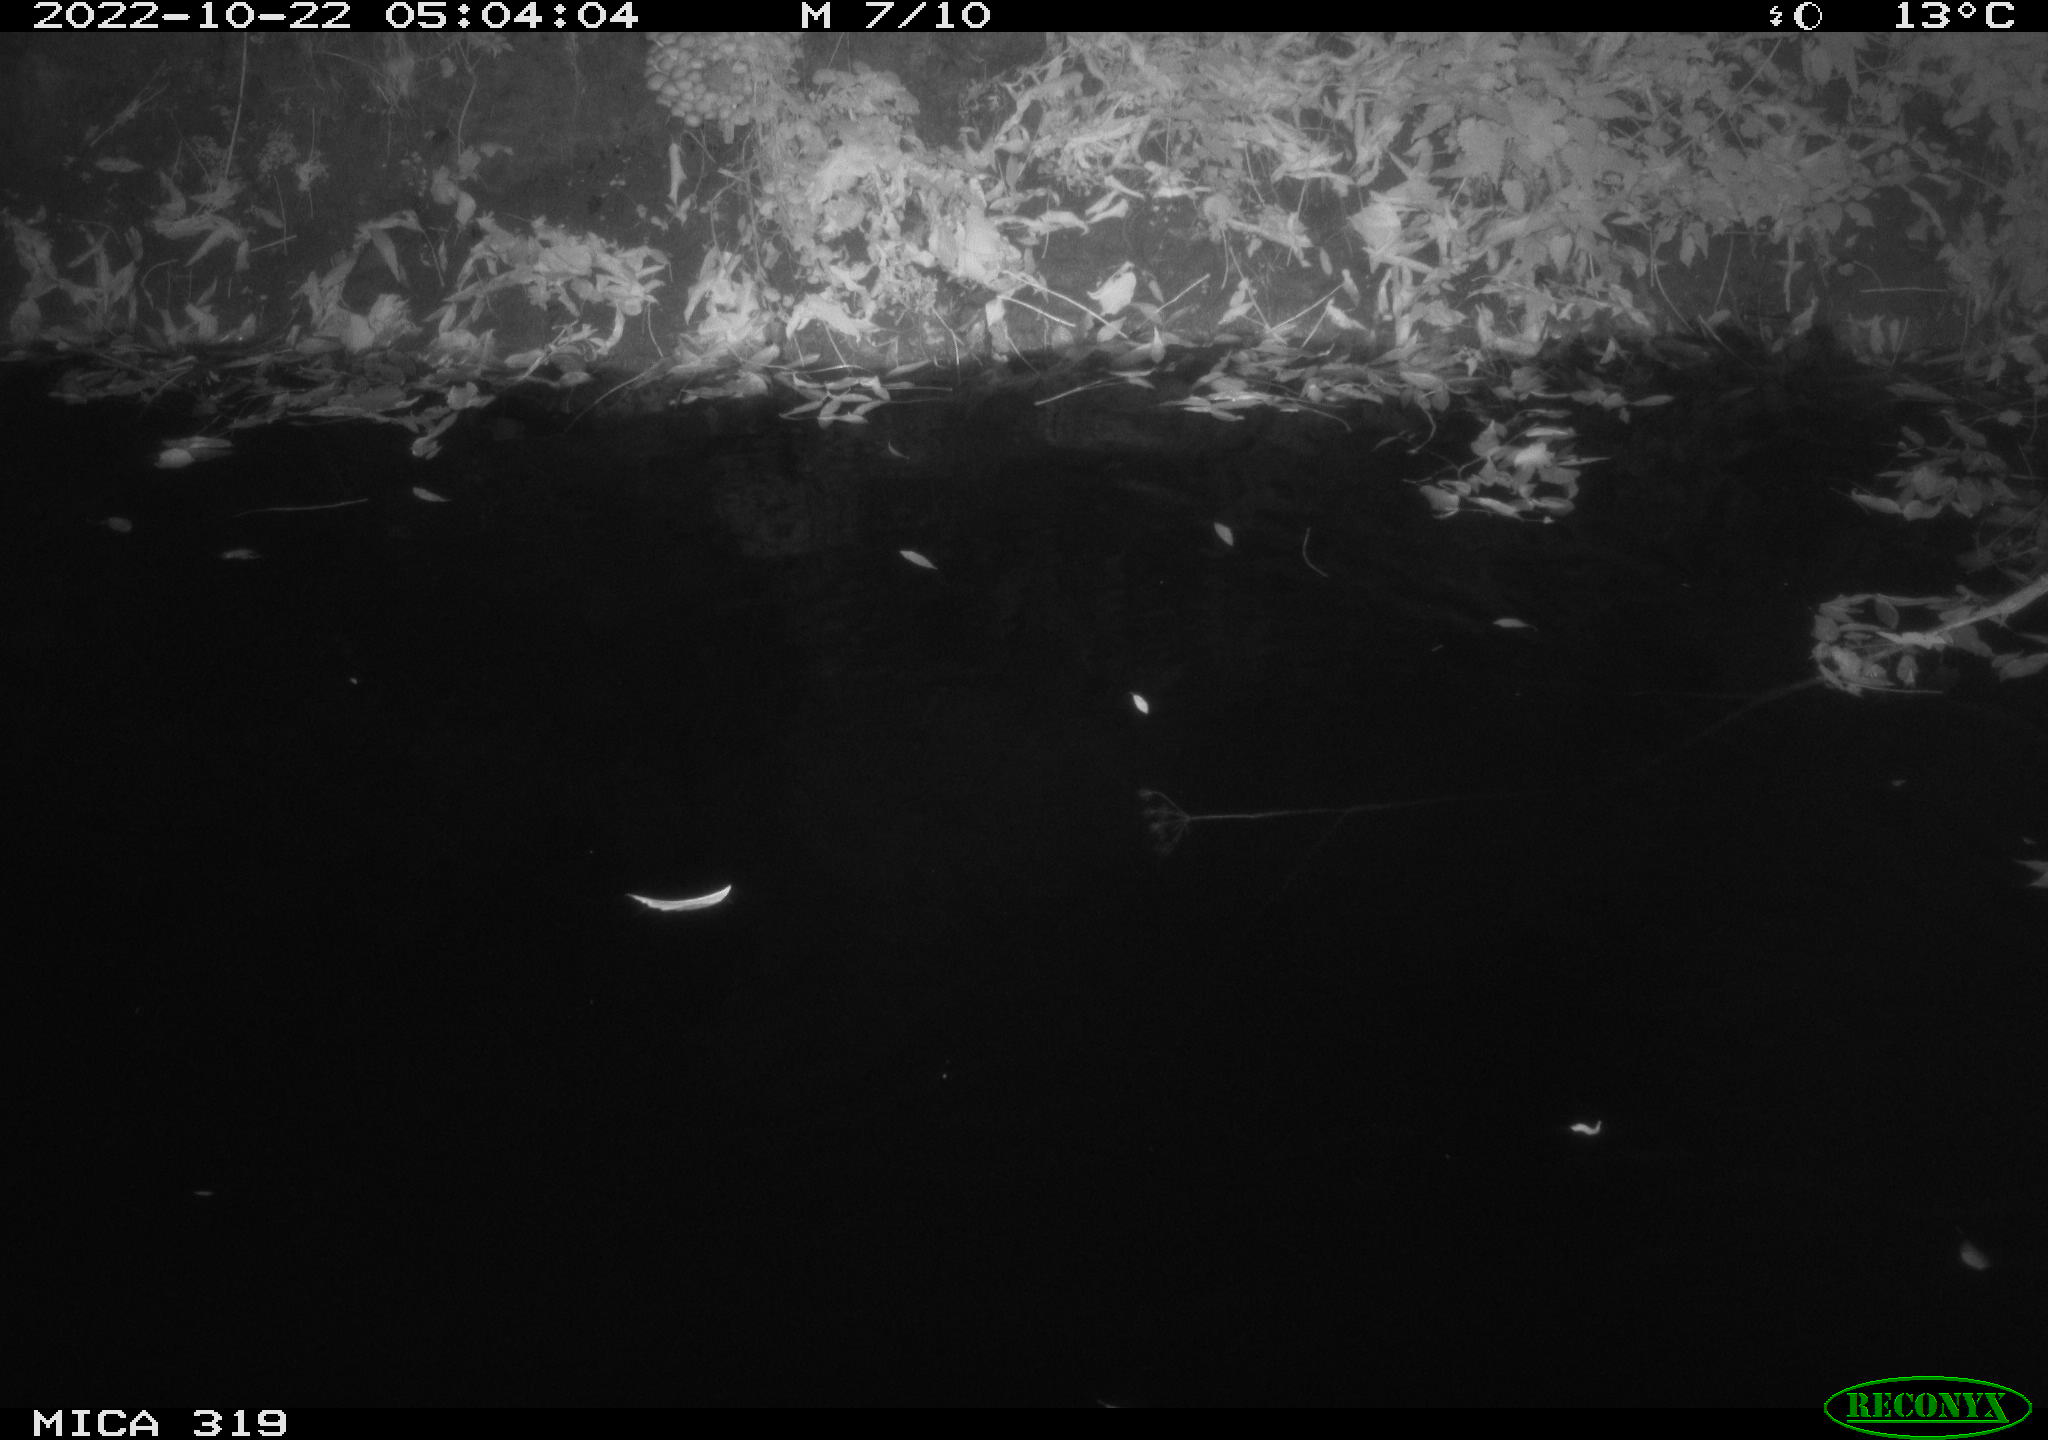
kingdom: Animalia
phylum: Chordata
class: Aves
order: Anseriformes
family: Anatidae
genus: Anas
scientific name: Anas
